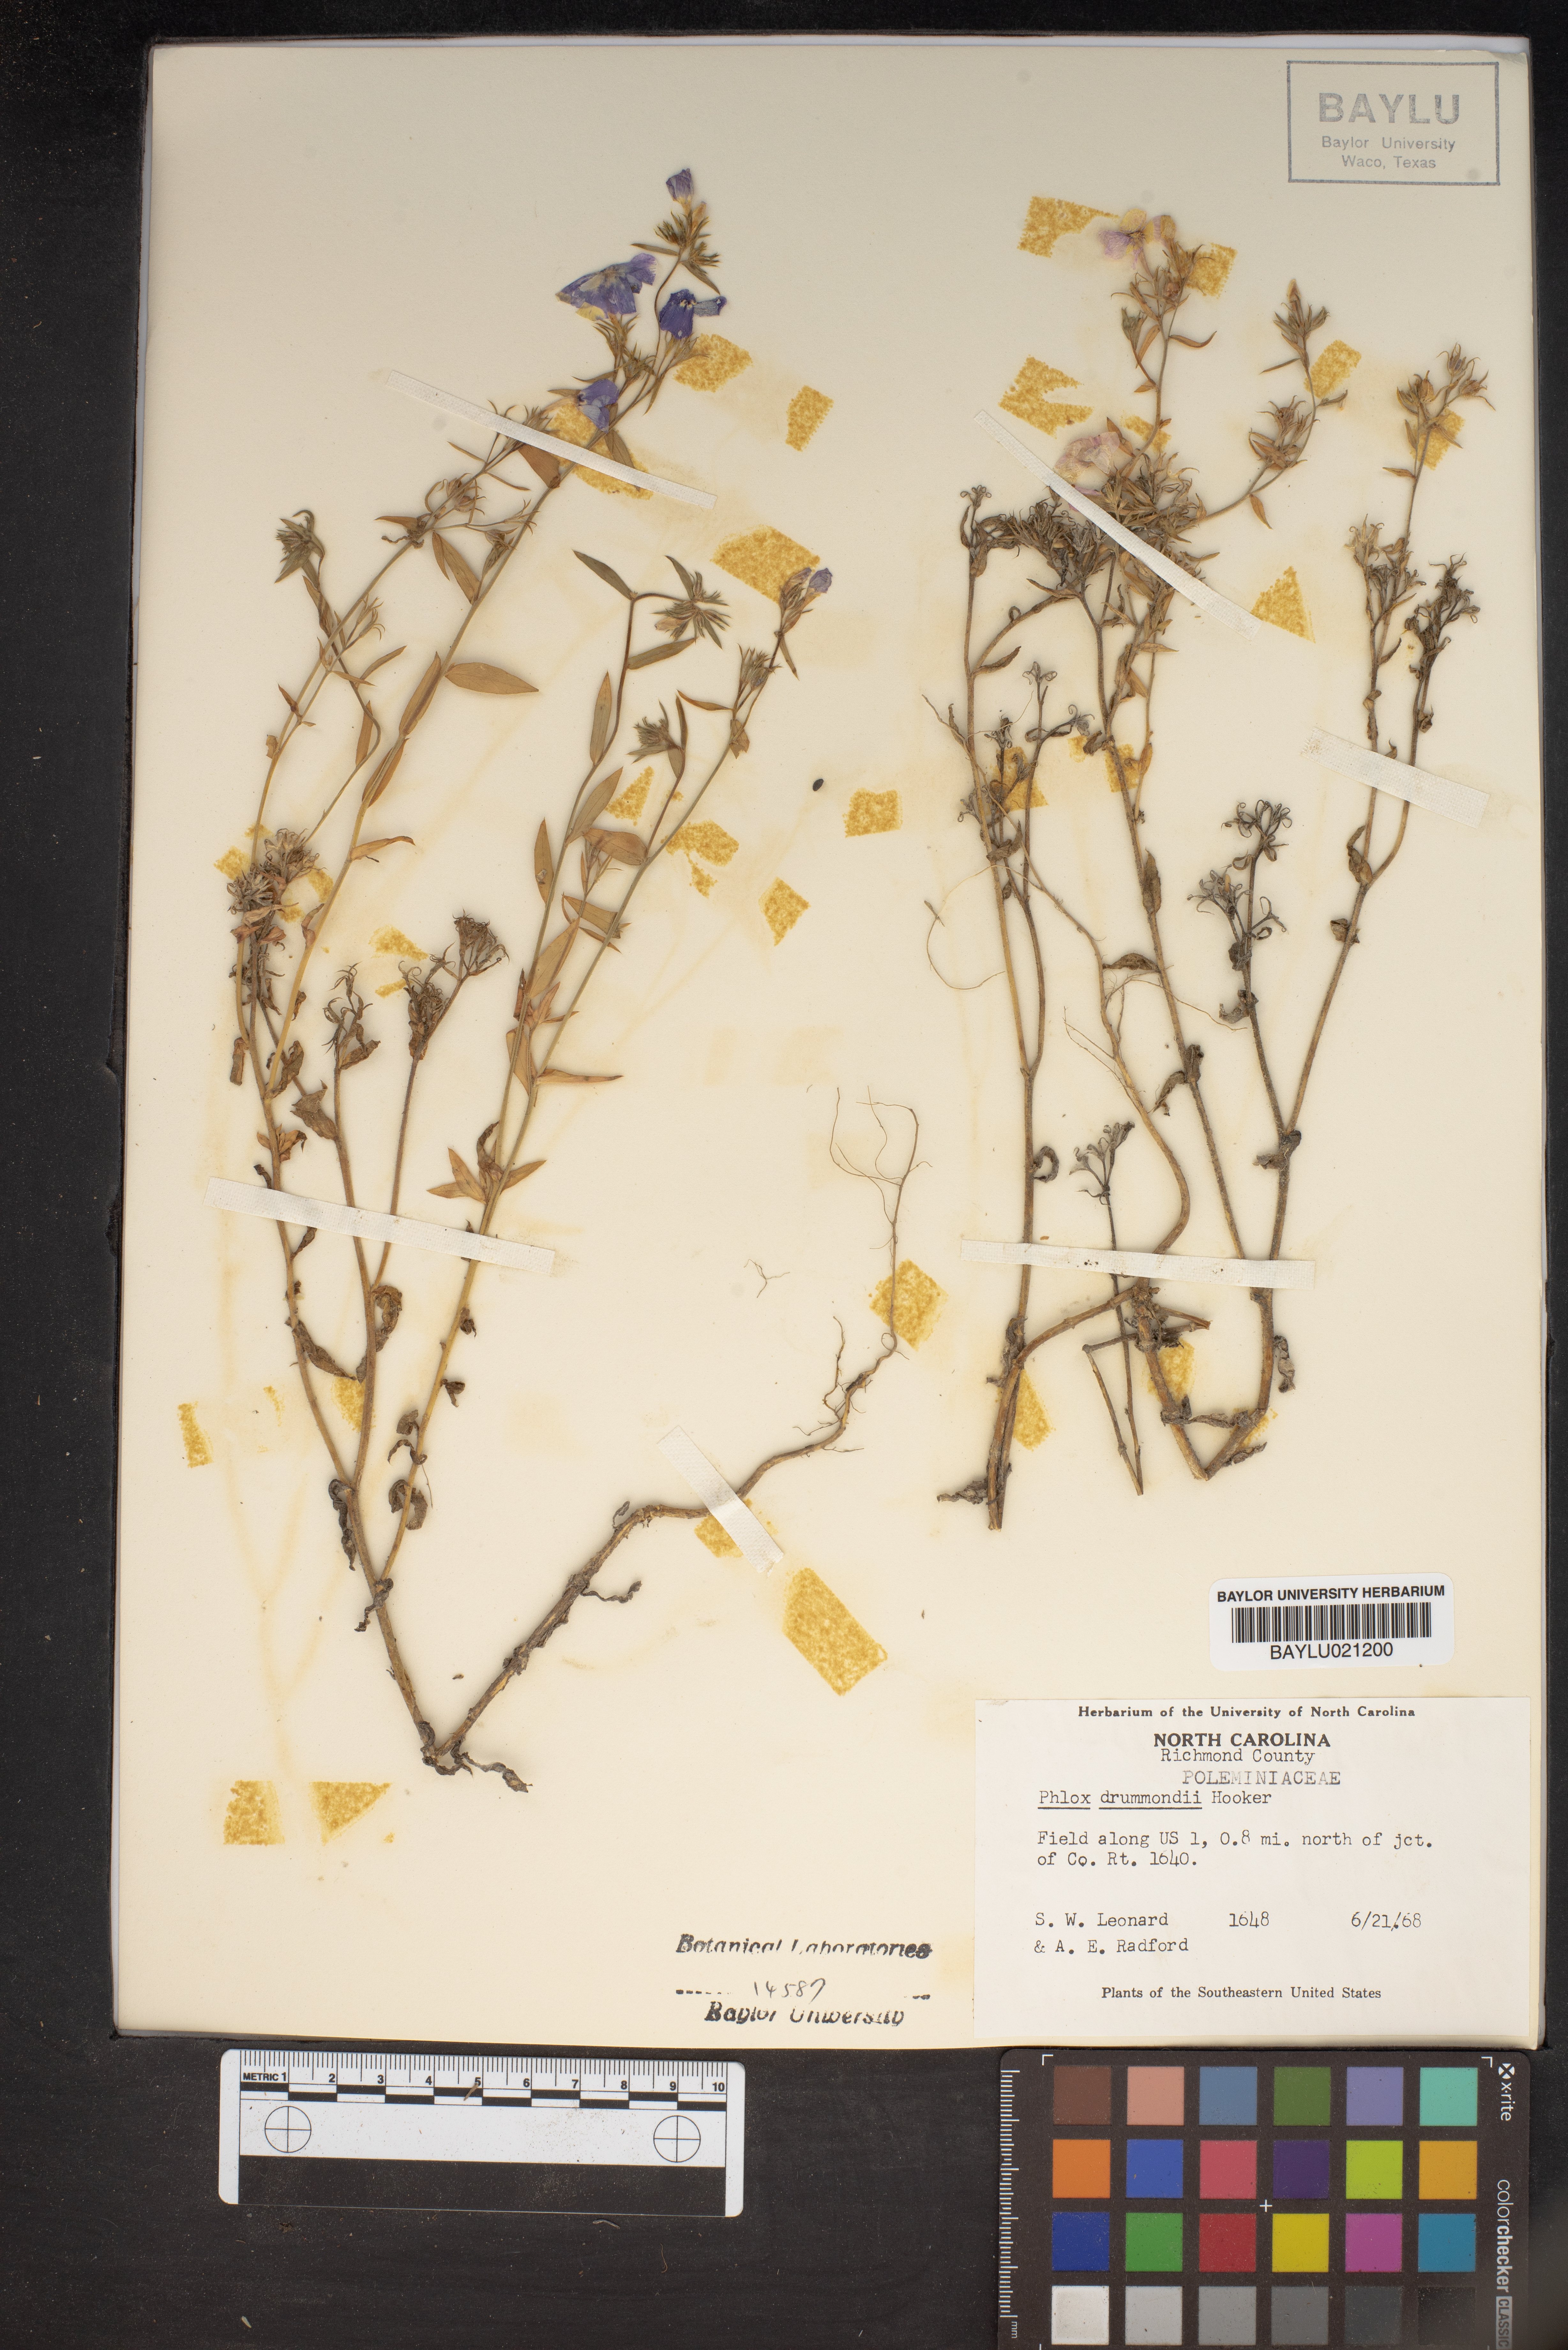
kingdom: Plantae
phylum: Tracheophyta
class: Magnoliopsida
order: Ericales
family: Polemoniaceae
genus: Phlox
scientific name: Phlox drummondii
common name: Drummond's phlox
